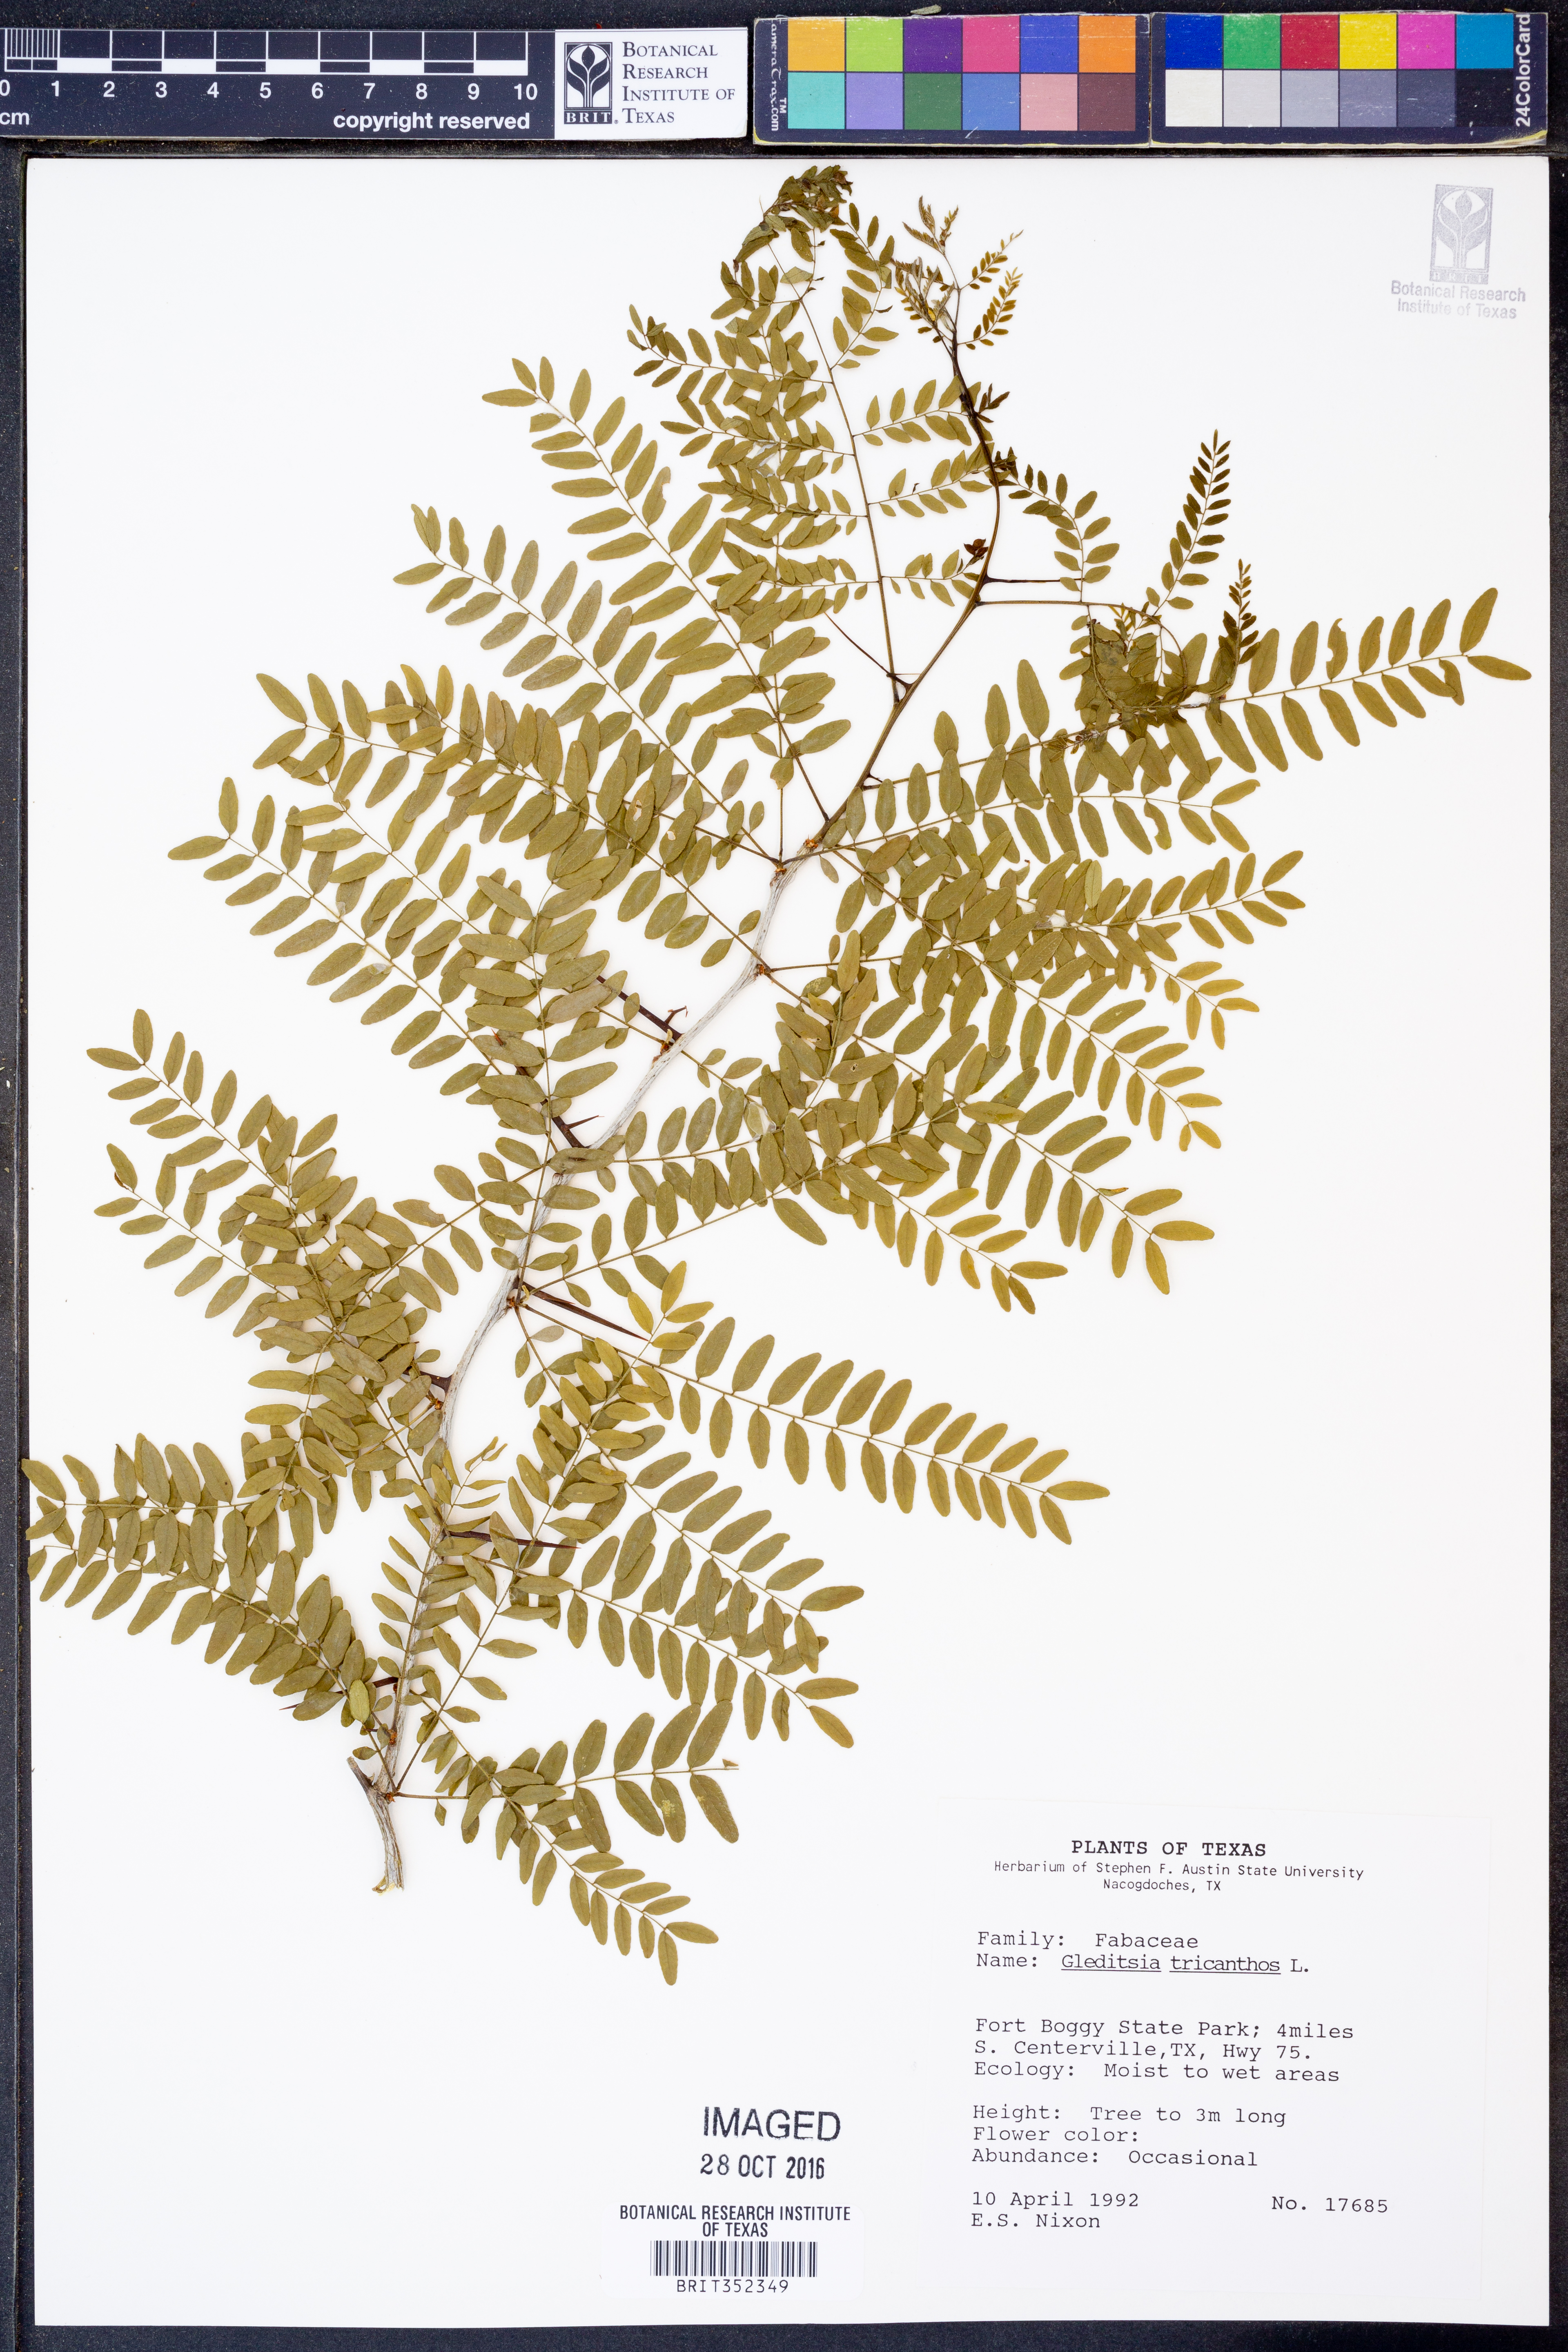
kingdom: Plantae
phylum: Tracheophyta
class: Magnoliopsida
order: Fabales
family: Fabaceae
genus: Gleditsia
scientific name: Gleditsia triacanthos
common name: Common honeylocust
